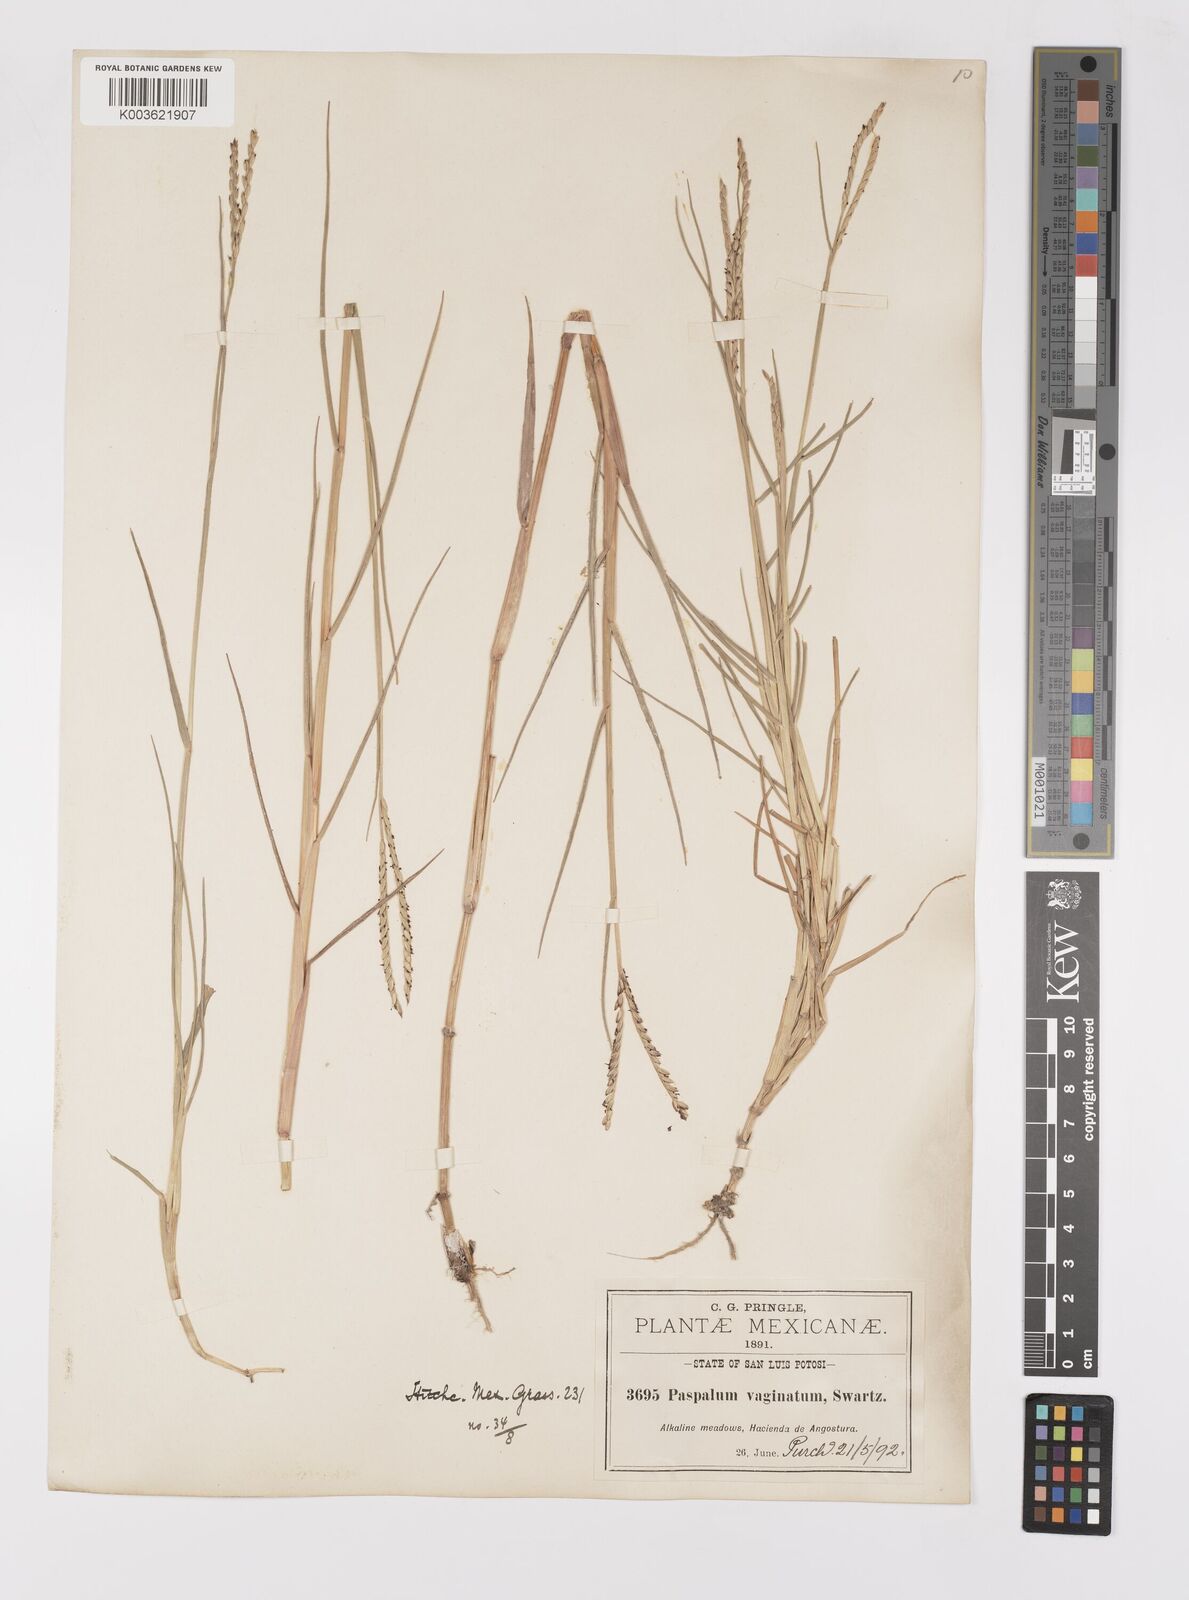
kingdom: Plantae
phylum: Tracheophyta
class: Liliopsida
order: Poales
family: Poaceae
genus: Paspalum
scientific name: Paspalum vaginatum
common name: Seashore paspalum
